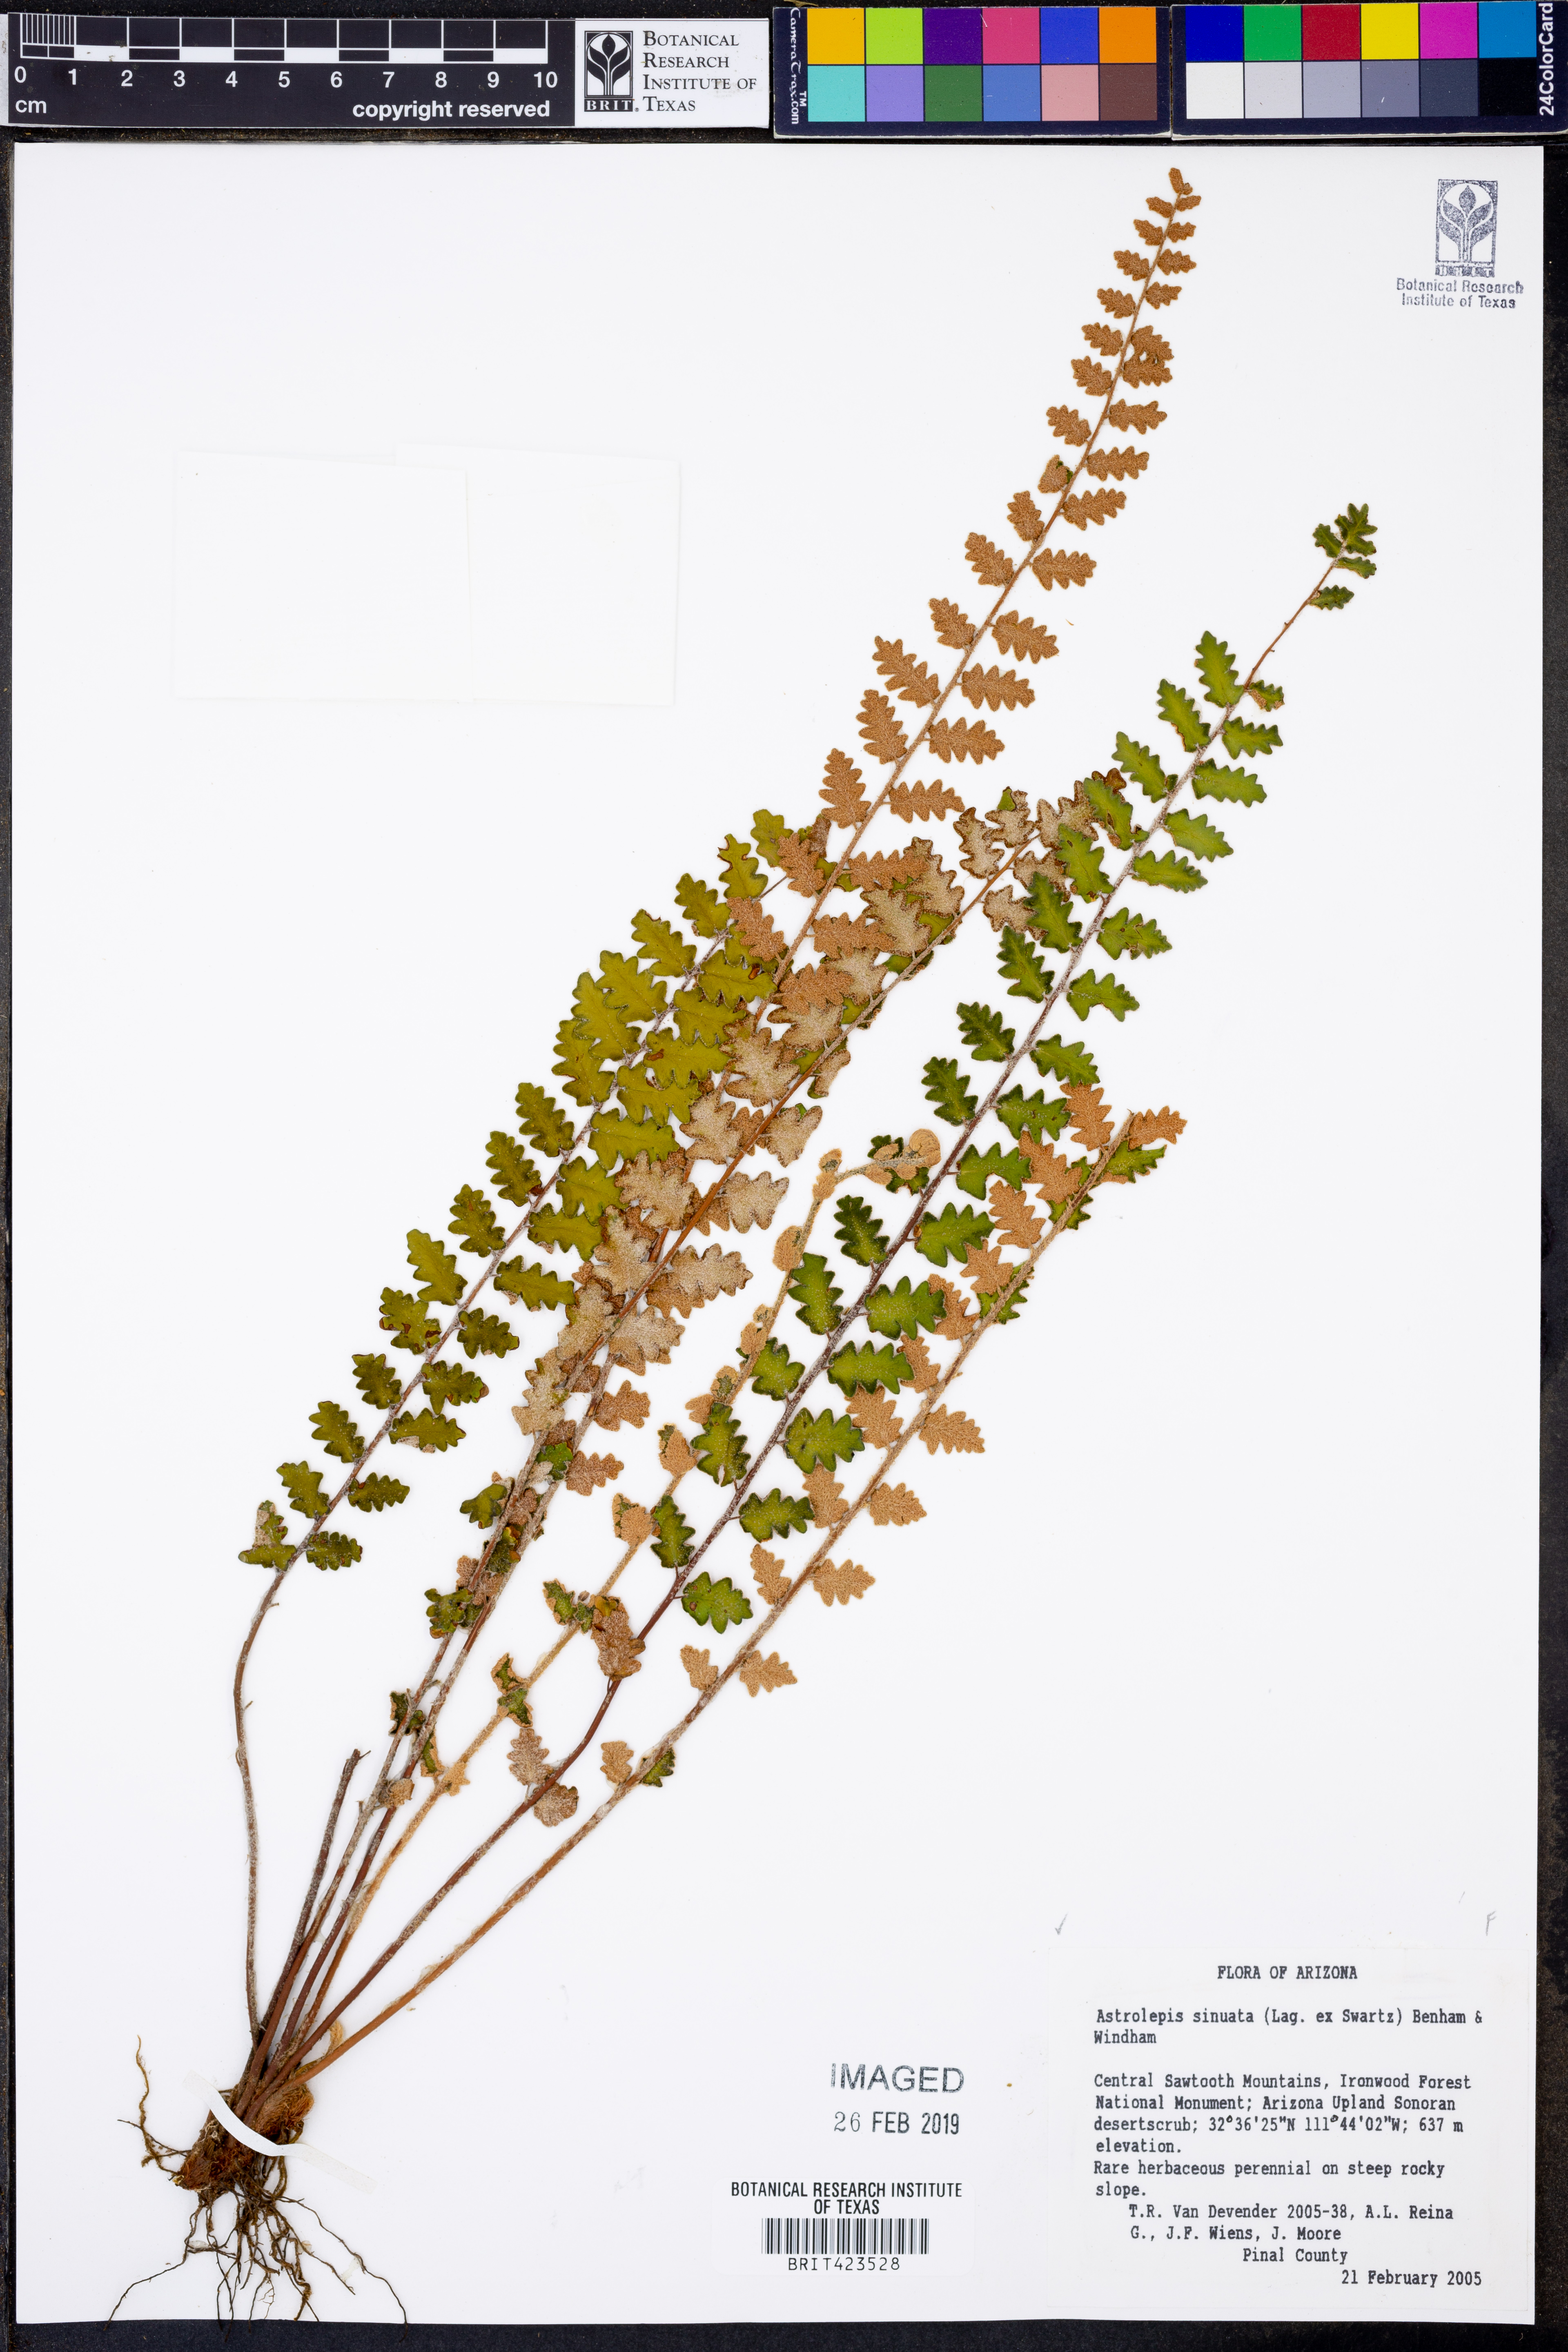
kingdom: Plantae
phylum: Tracheophyta
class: Polypodiopsida
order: Polypodiales
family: Pteridaceae
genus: Astrolepis
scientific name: Astrolepis sinuata
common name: Wavy scaly cloakfern
